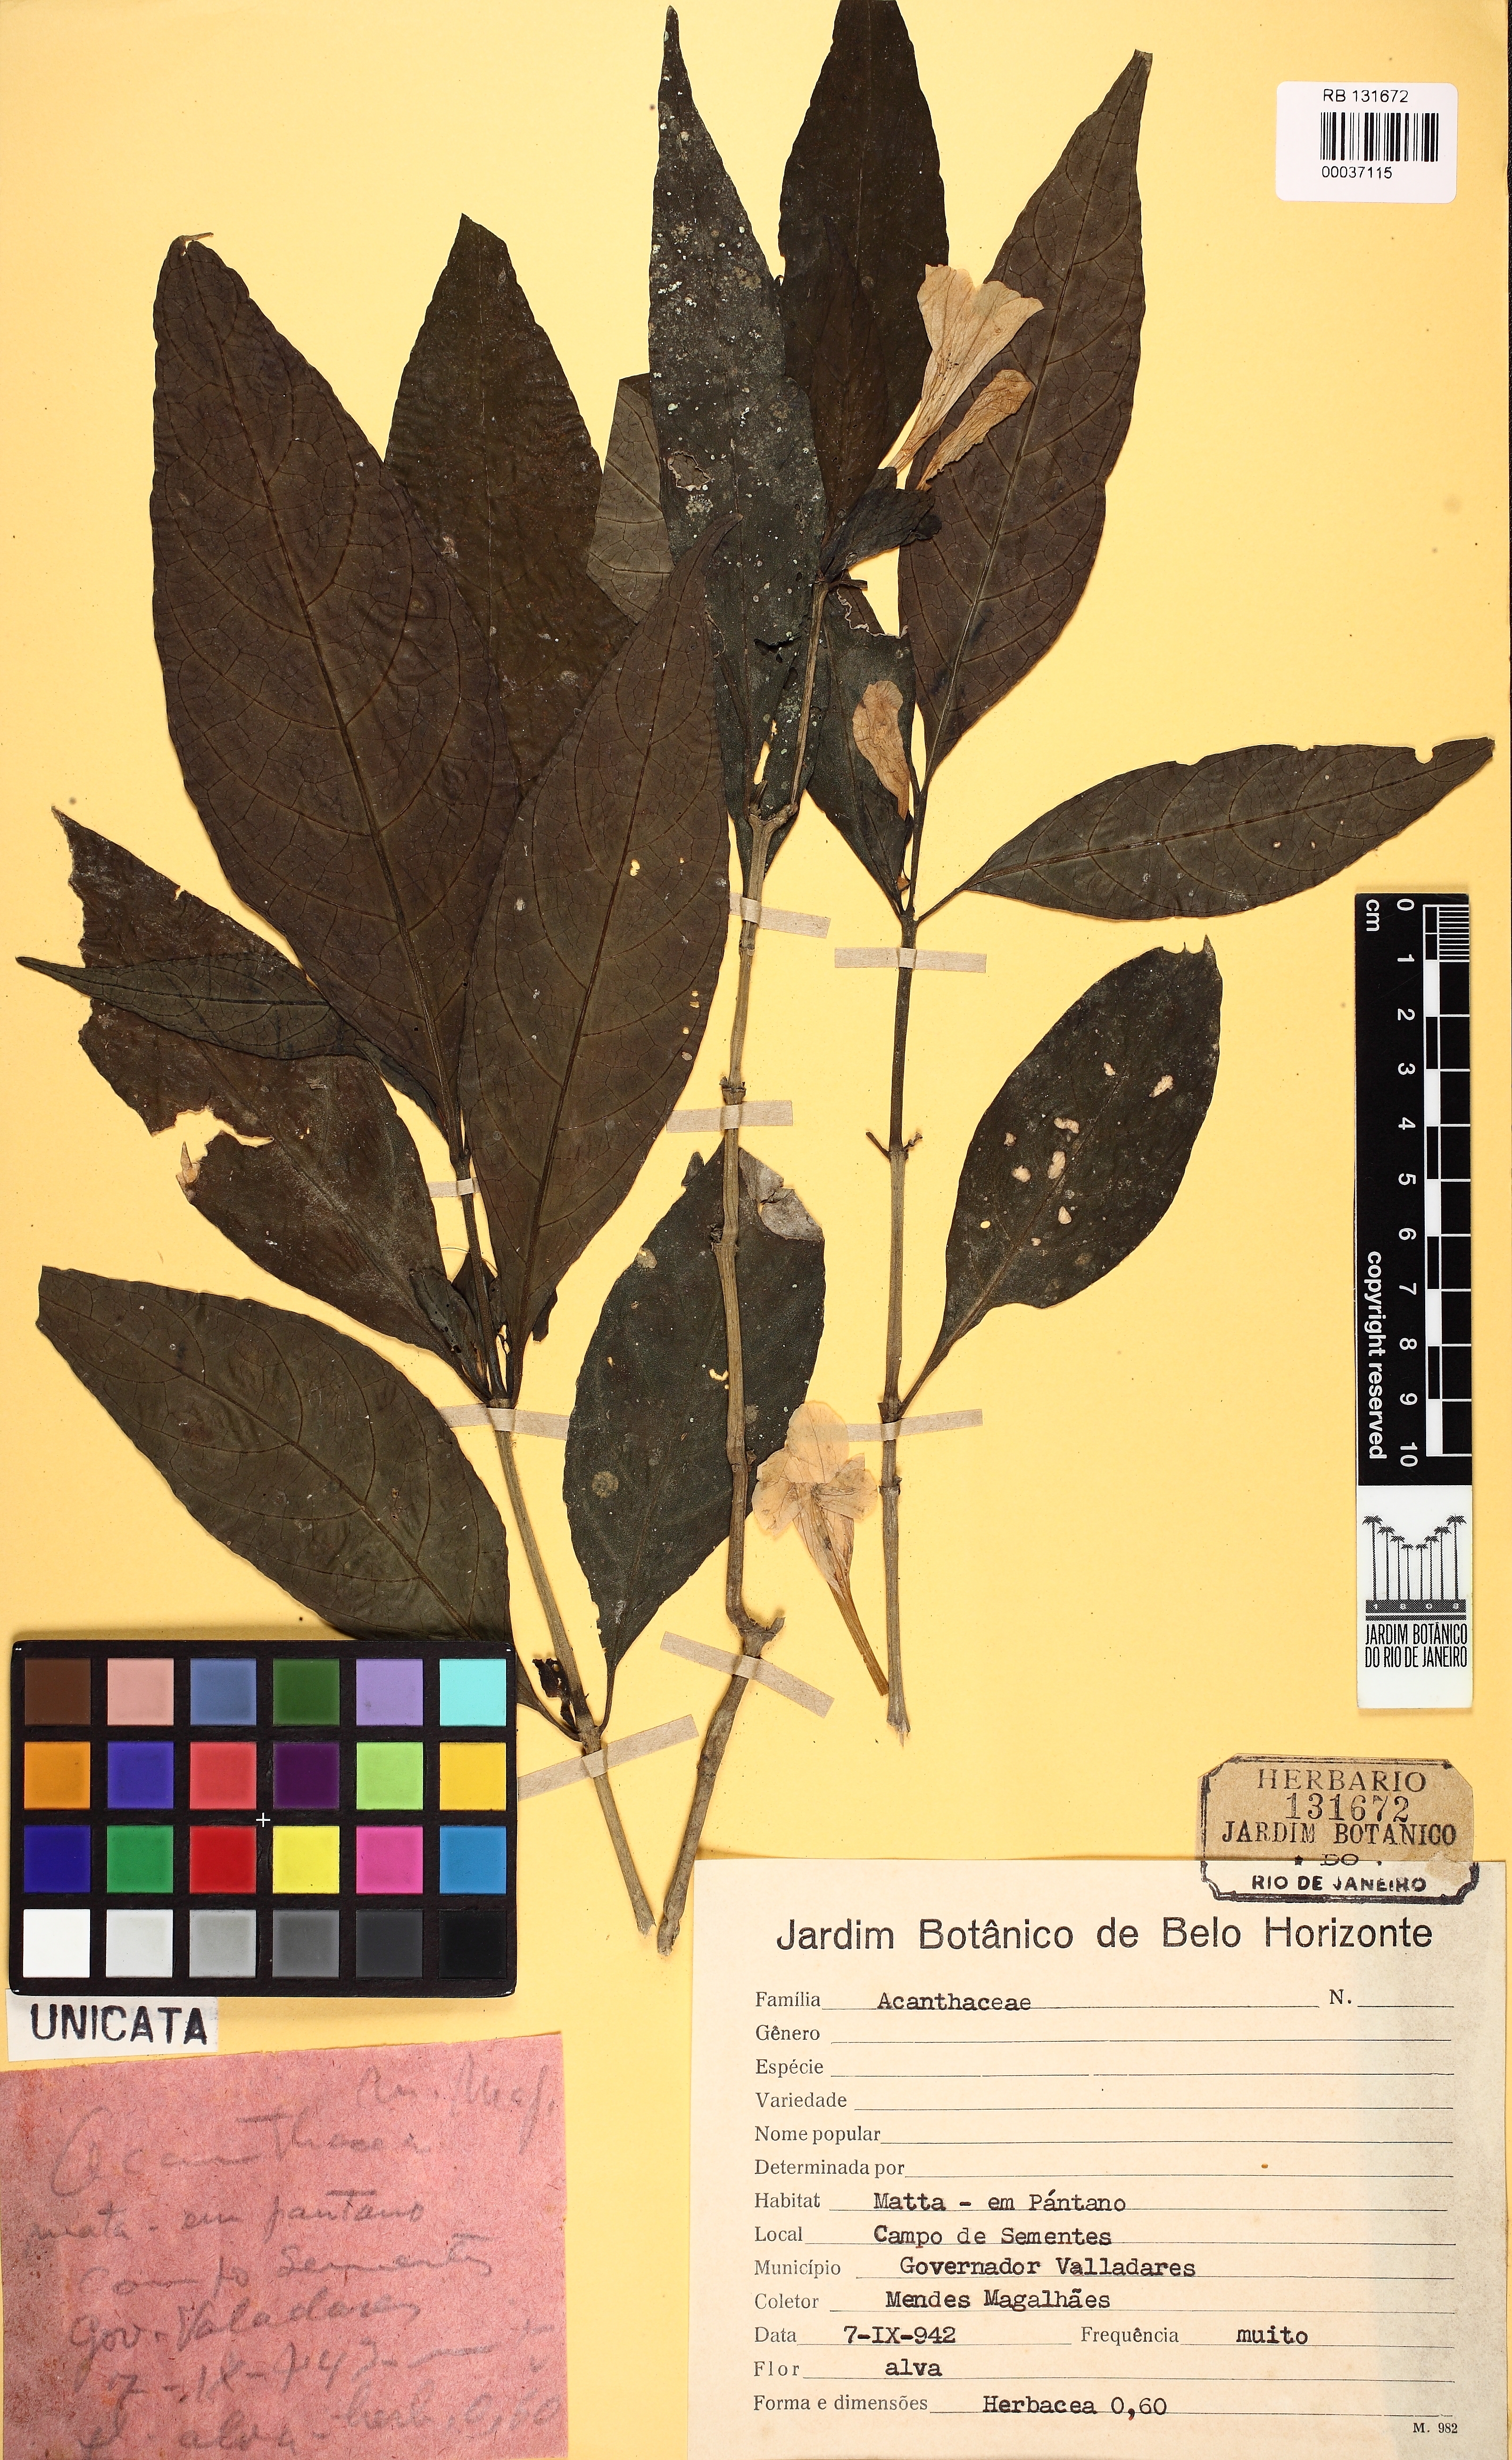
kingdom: Plantae
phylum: Tracheophyta
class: Magnoliopsida
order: Lamiales
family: Acanthaceae
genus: Ruellia
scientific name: Ruellia solitaria
